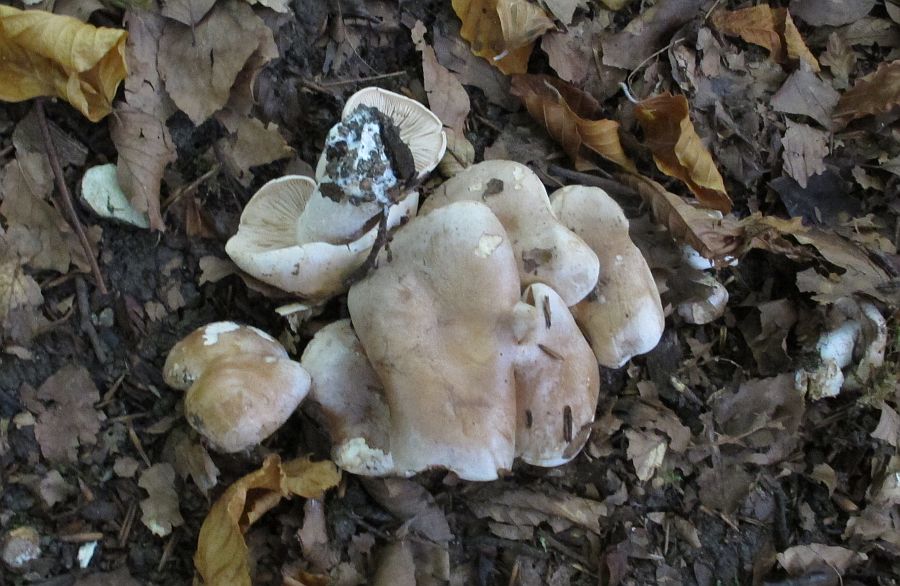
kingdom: Fungi
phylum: Basidiomycota
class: Agaricomycetes
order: Agaricales
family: Hymenogastraceae
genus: Hebeloma
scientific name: Hebeloma
